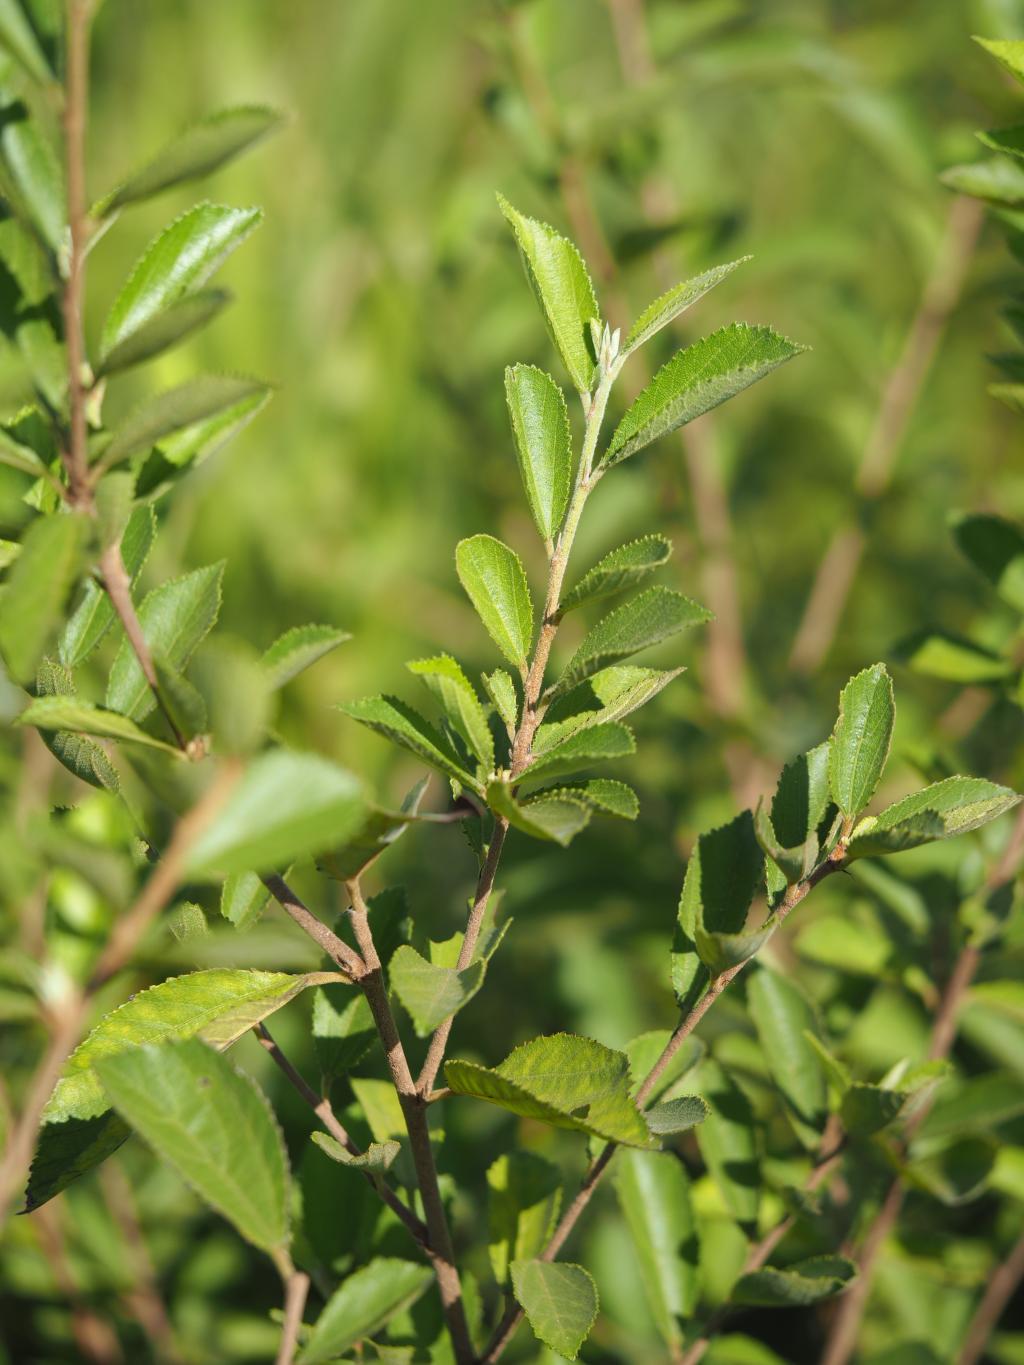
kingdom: Plantae
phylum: Tracheophyta
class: Magnoliopsida
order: Malvales
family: Malvaceae
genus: Grewia
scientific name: Grewia rhombifolia
